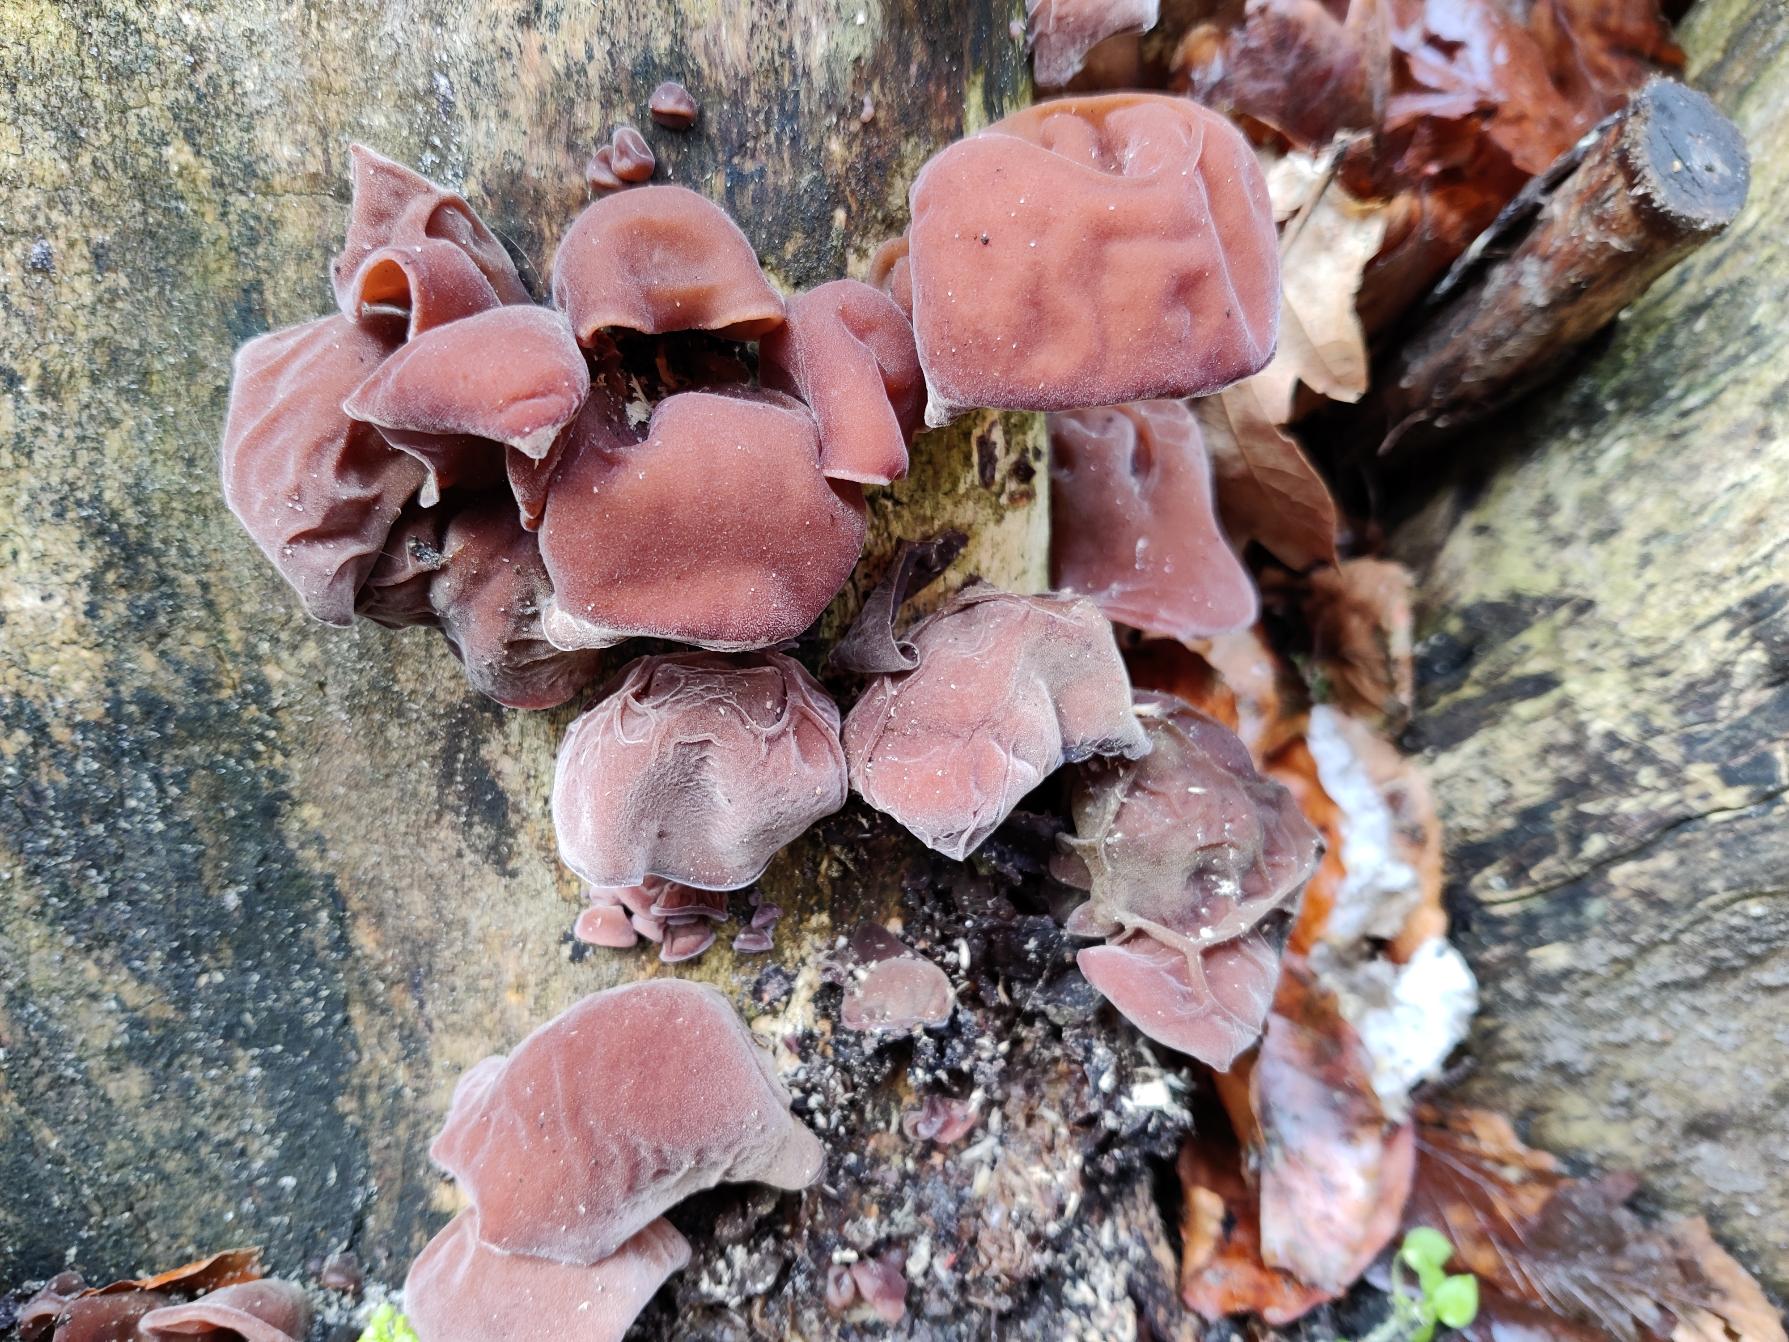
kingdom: Fungi
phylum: Basidiomycota
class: Agaricomycetes
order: Auriculariales
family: Auriculariaceae
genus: Auricularia
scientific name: Auricularia auricula-judae
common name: Almindelig judasøre
